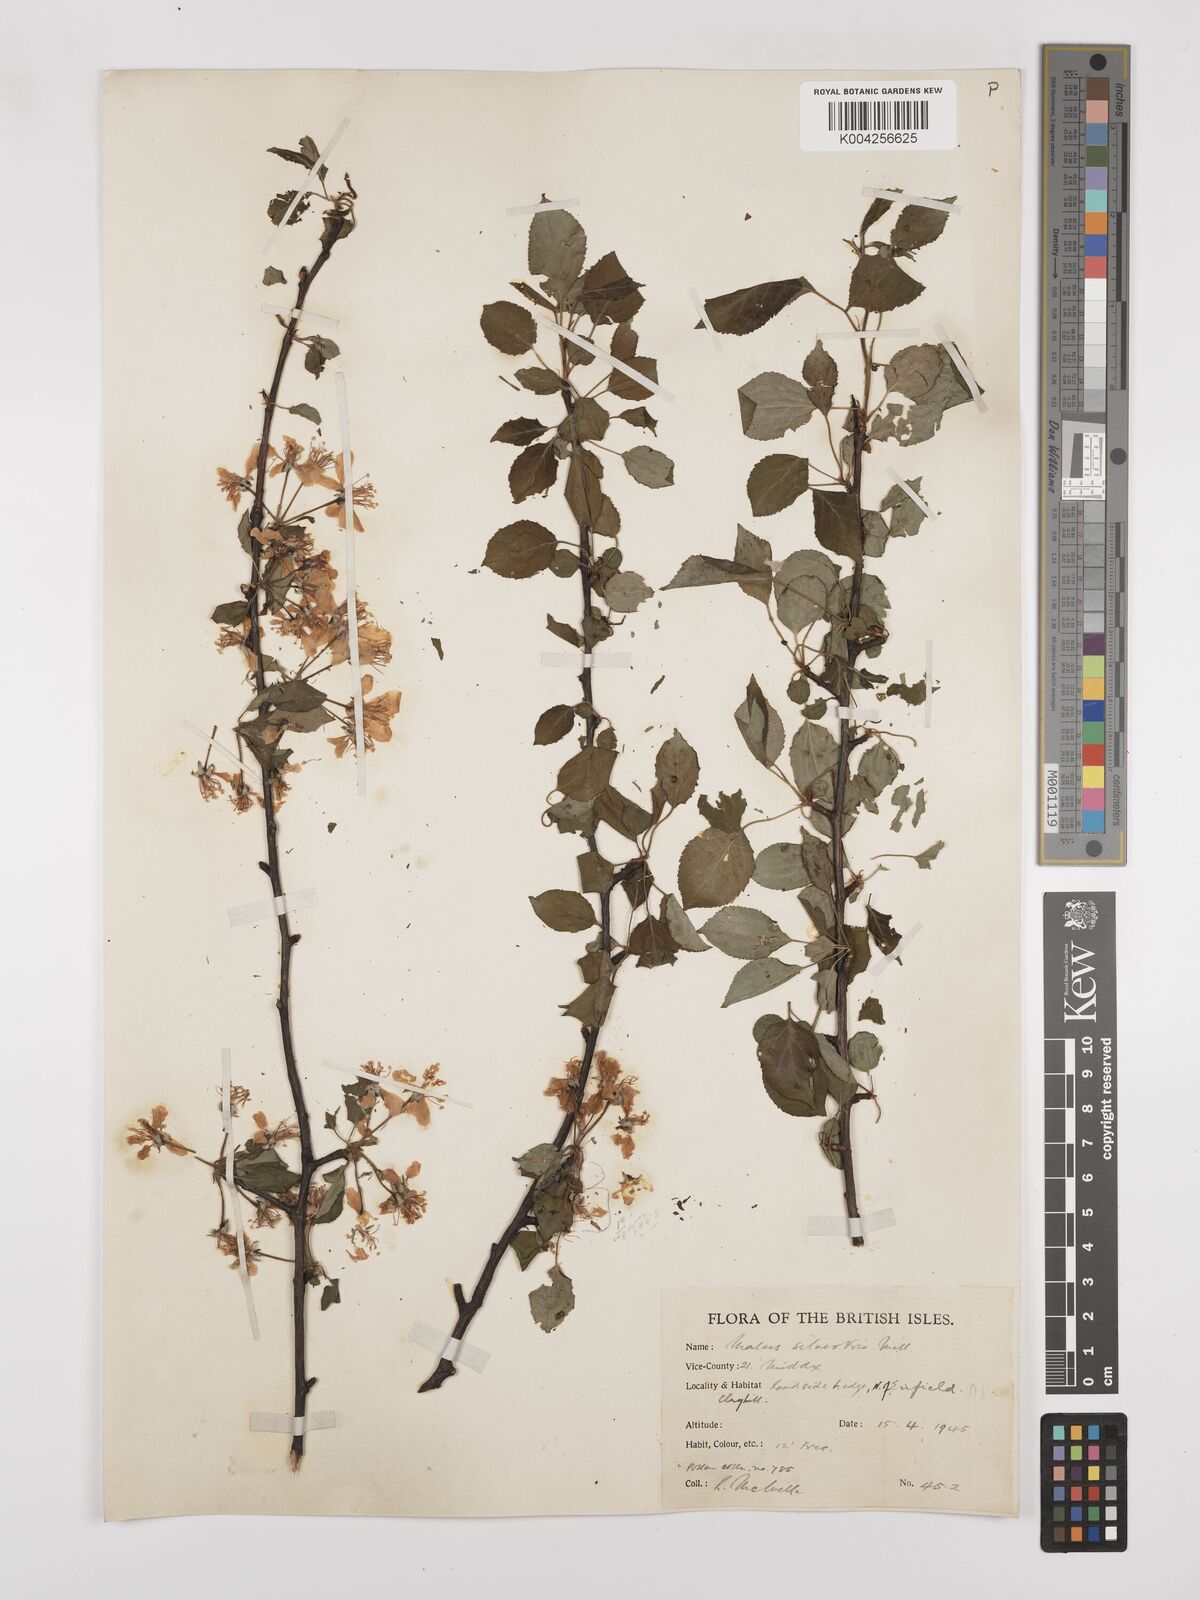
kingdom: Plantae
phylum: Tracheophyta
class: Magnoliopsida
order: Rosales
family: Rosaceae
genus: Malus
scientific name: Malus sylvestris
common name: Crab apple
